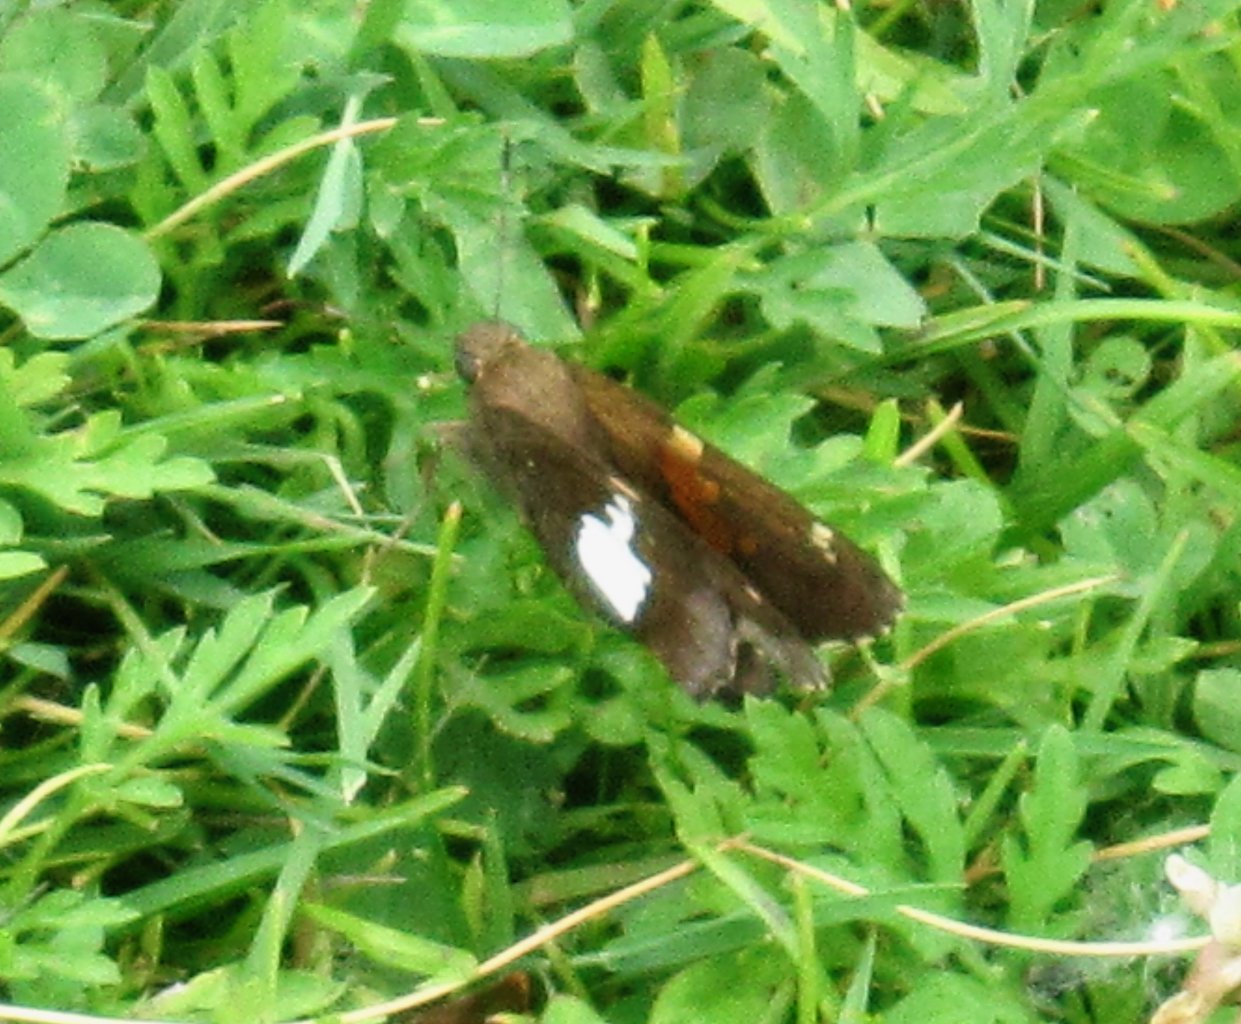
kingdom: Animalia
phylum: Arthropoda
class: Insecta
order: Lepidoptera
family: Hesperiidae
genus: Epargyreus
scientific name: Epargyreus clarus
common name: Silver-spotted Skipper
